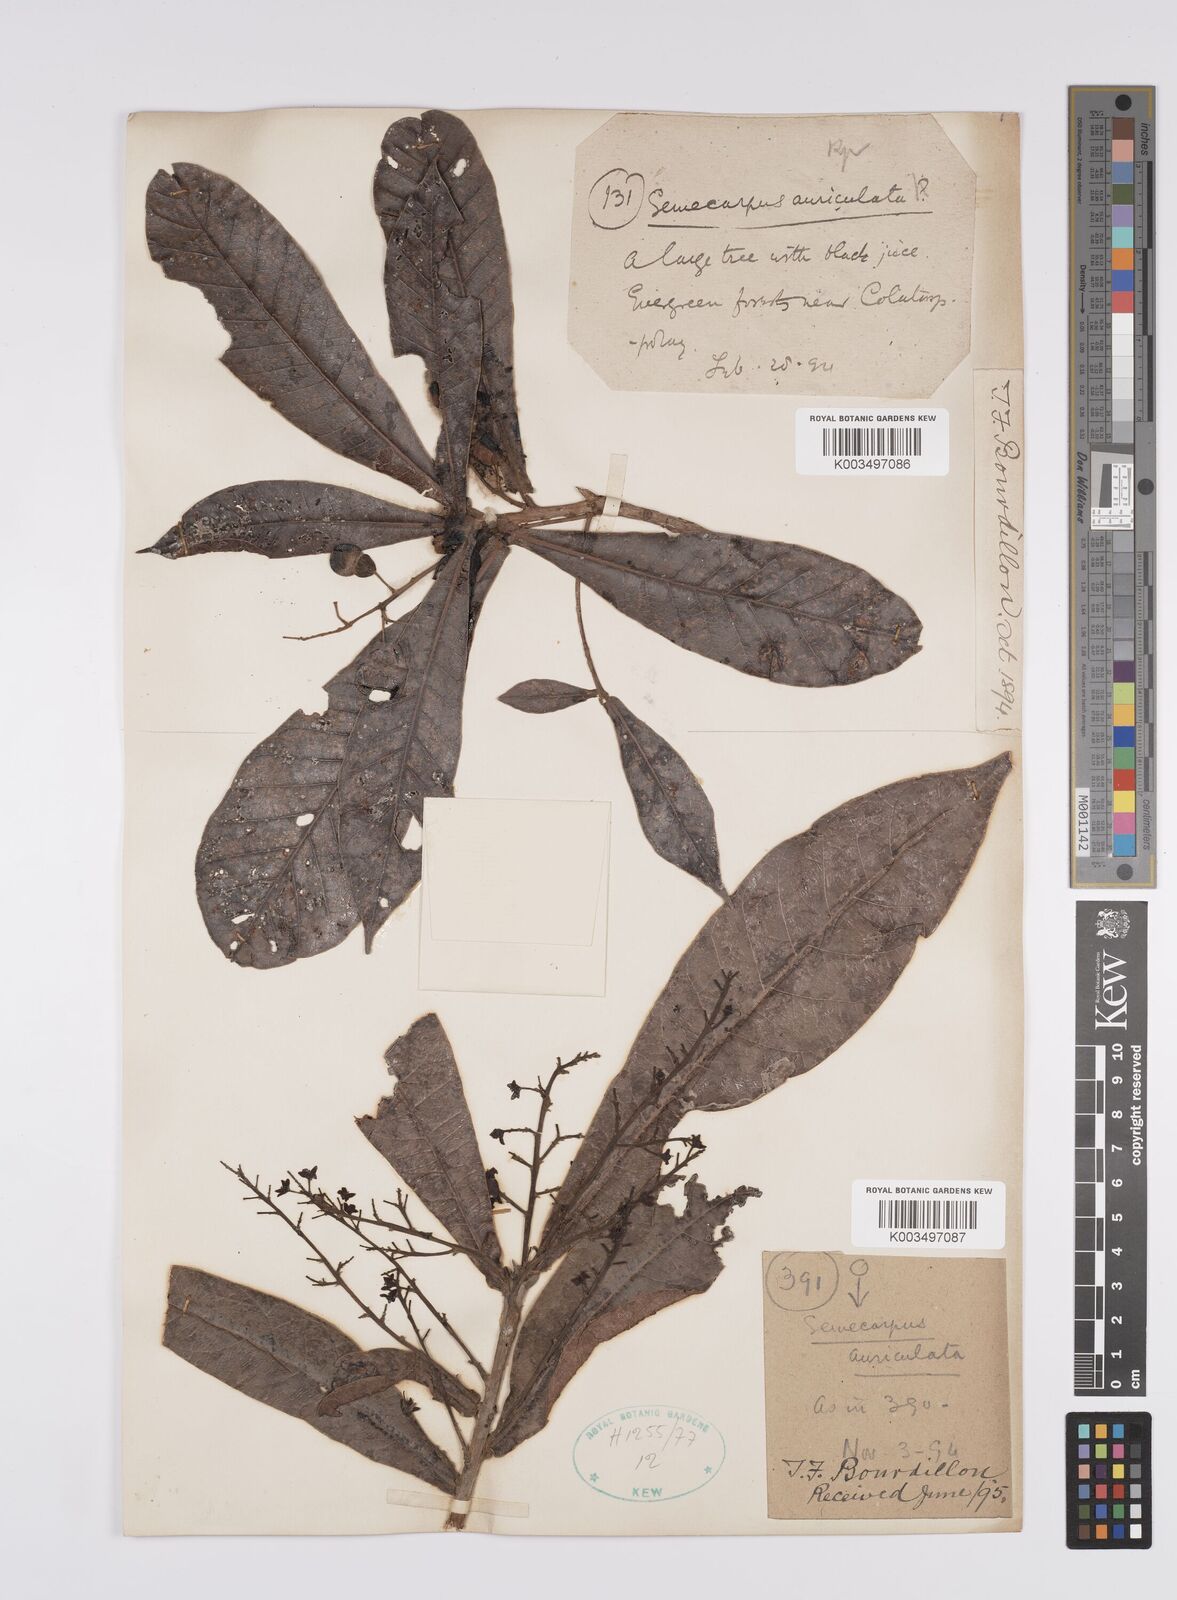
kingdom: Plantae
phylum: Tracheophyta
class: Magnoliopsida
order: Sapindales
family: Anacardiaceae
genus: Semecarpus
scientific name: Semecarpus auriculatus
